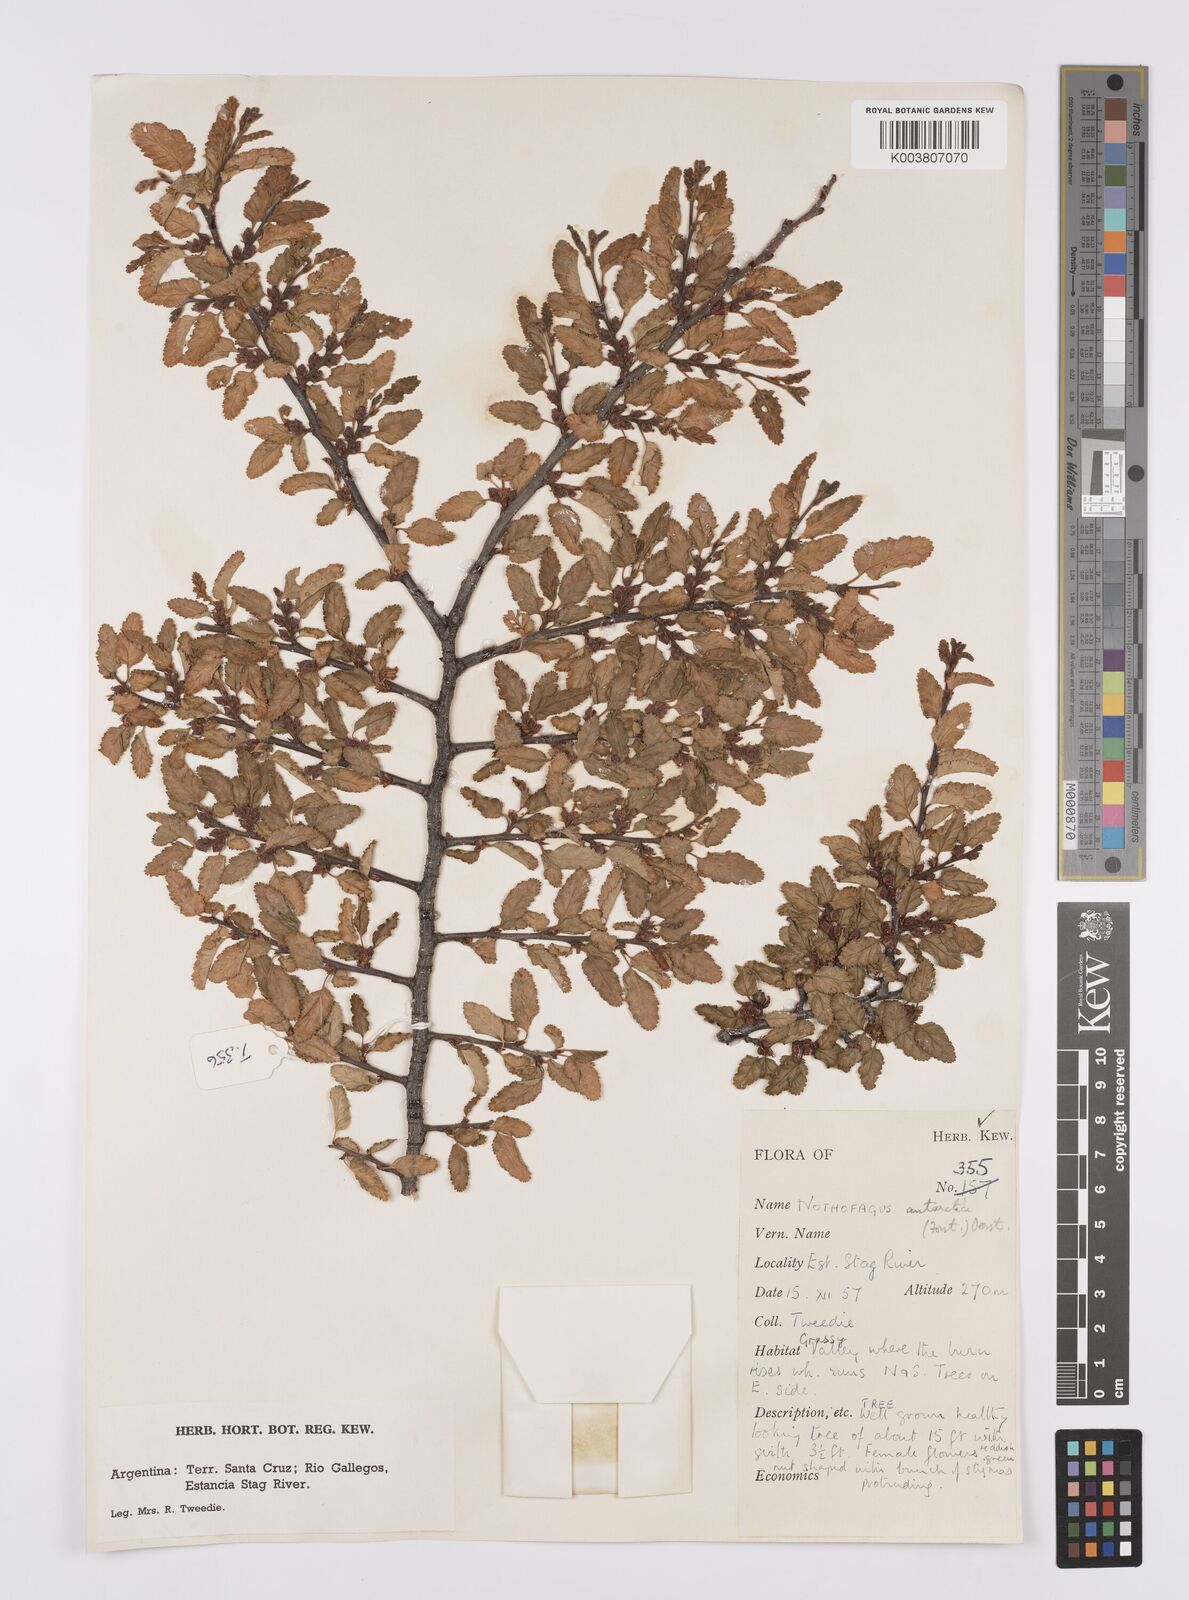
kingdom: Plantae
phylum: Tracheophyta
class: Magnoliopsida
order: Fagales
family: Nothofagaceae
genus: Nothofagus
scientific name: Nothofagus antarctica
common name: Antarctic beech
